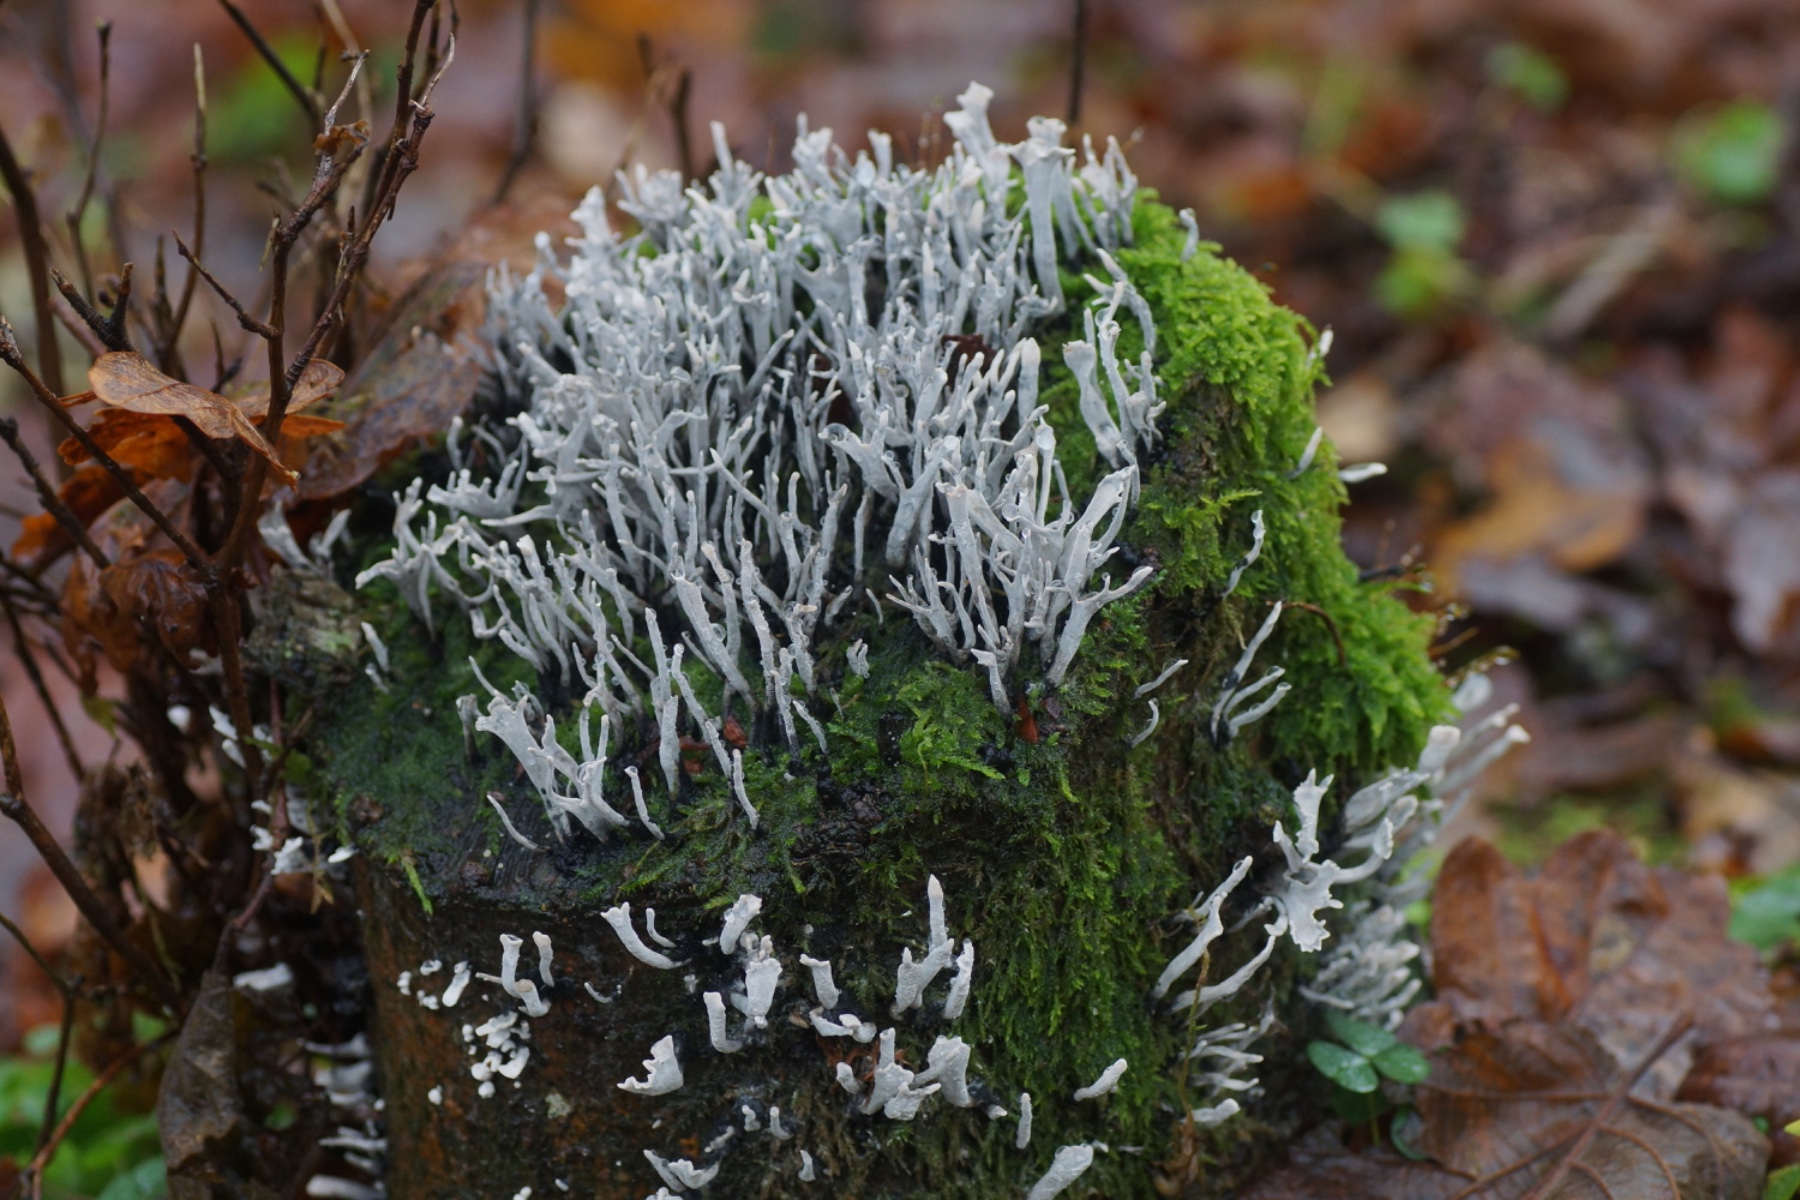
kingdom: Fungi
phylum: Ascomycota
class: Sordariomycetes
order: Xylariales
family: Xylariaceae
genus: Xylaria
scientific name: Xylaria hypoxylon
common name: grenet stødsvamp
